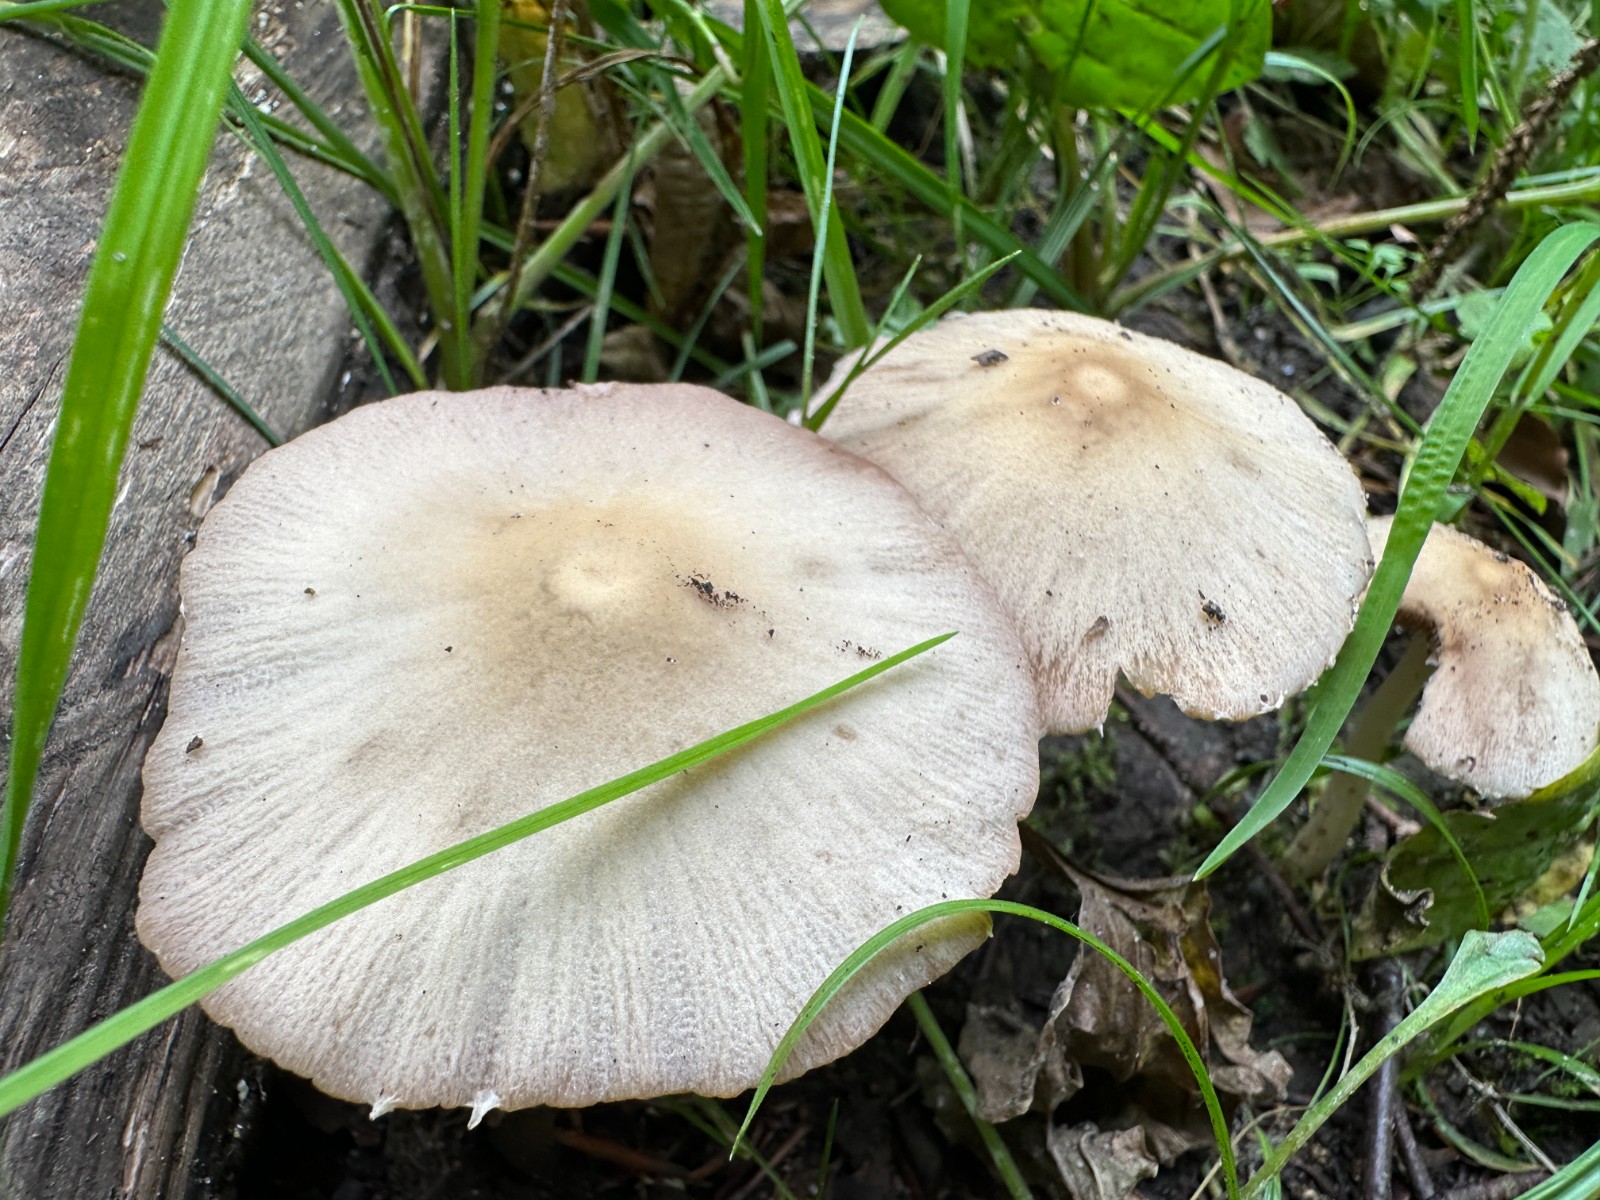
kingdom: Fungi
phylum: Basidiomycota
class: Agaricomycetes
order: Agaricales
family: Psathyrellaceae
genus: Candolleomyces
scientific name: Candolleomyces candolleanus
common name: Candolles mørkhat
